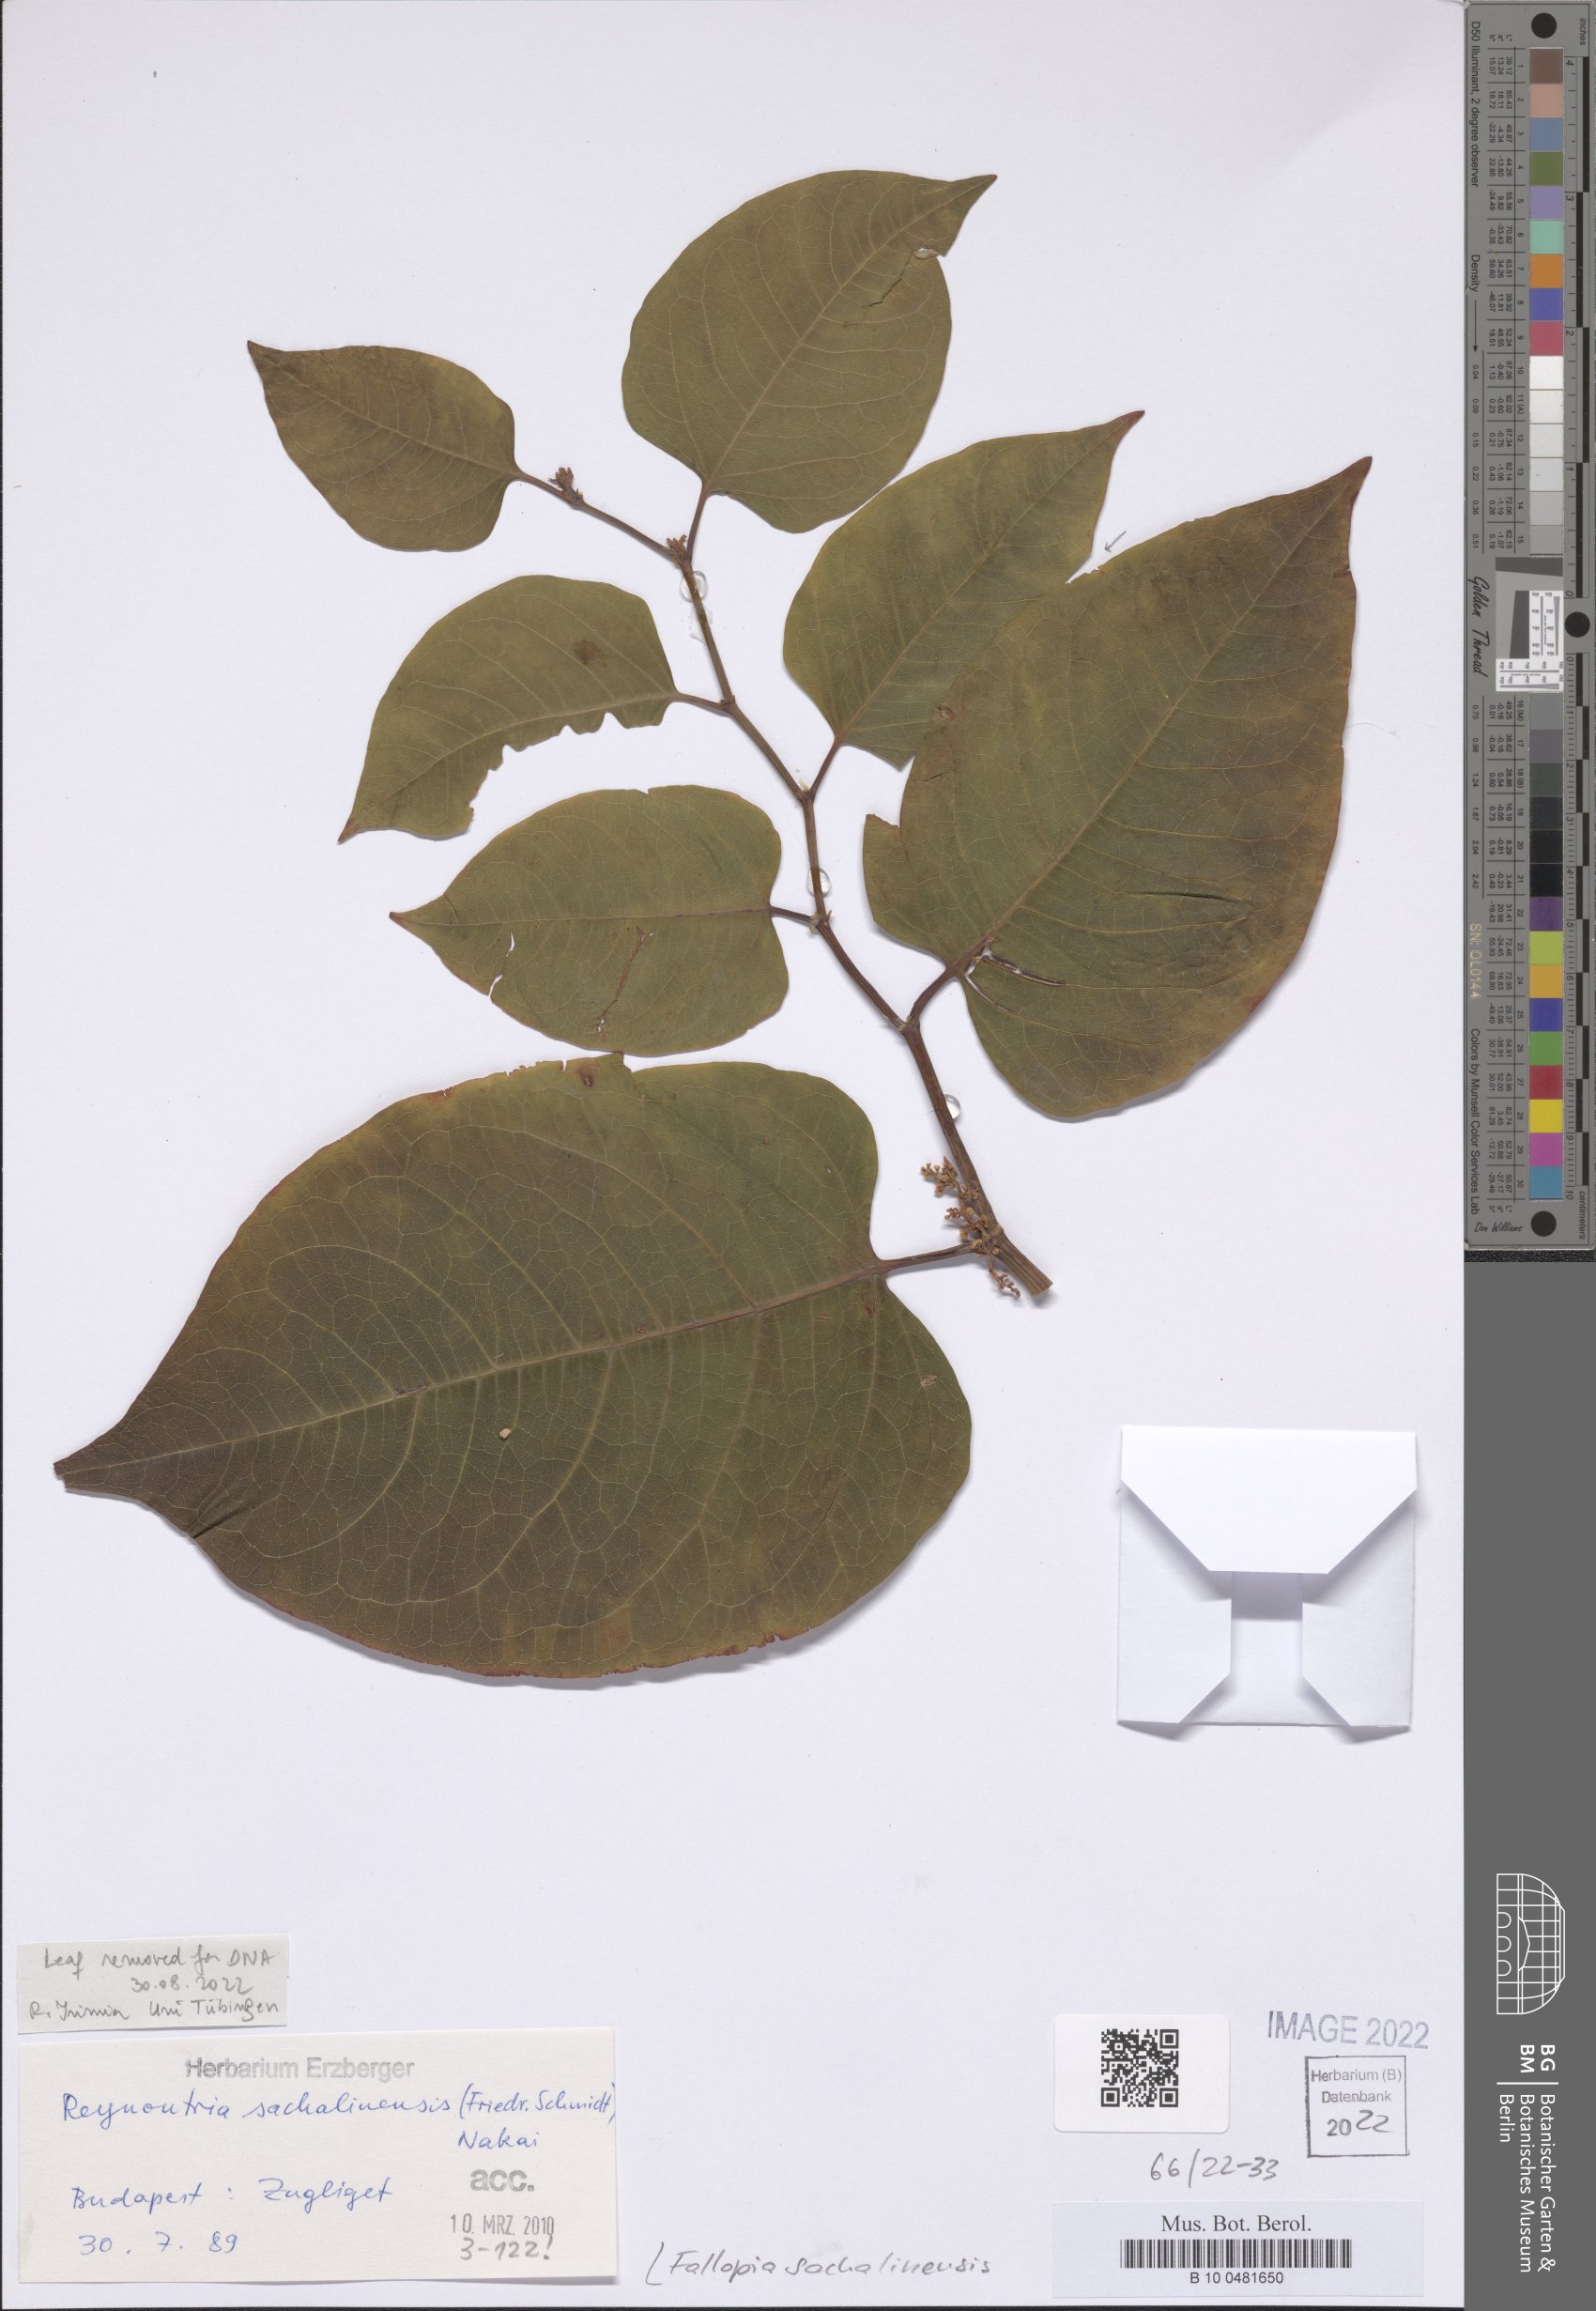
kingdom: Plantae
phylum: Tracheophyta
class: Magnoliopsida
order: Caryophyllales
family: Polygonaceae
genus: Reynoutria
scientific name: Reynoutria sachalinensis
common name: Giant knotweed
